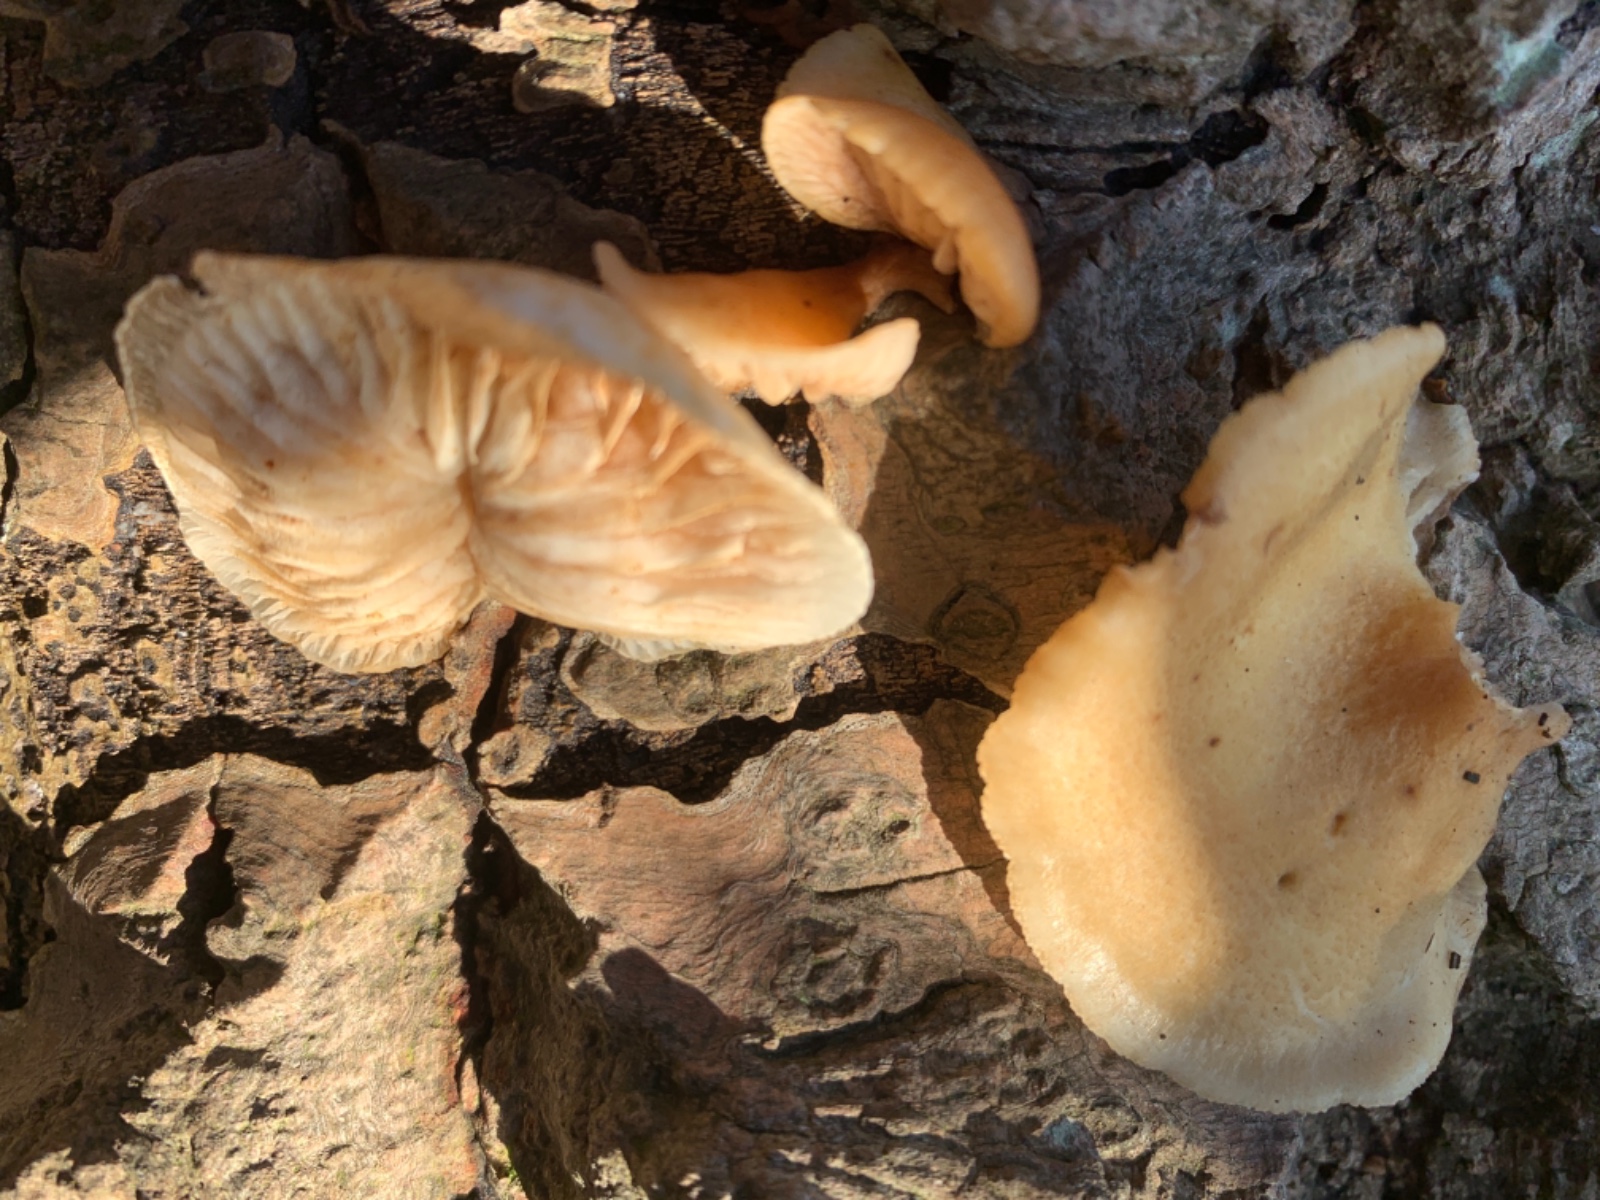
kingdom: Fungi
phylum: Basidiomycota
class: Agaricomycetes
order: Agaricales
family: Crepidotaceae
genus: Crepidotus
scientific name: Crepidotus mollis
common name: blød muslingesvamp
